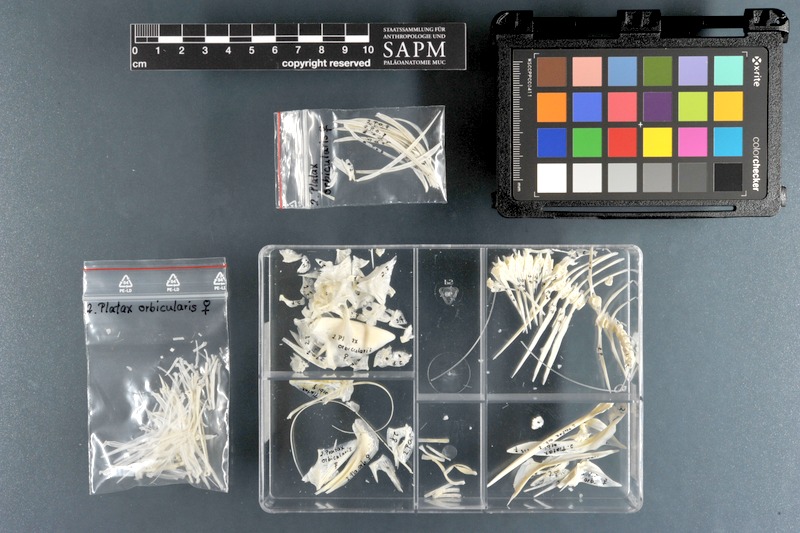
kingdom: Animalia
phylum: Chordata
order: Perciformes
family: Ephippidae
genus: Platax
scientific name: Platax orbicularis
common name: Batfish
